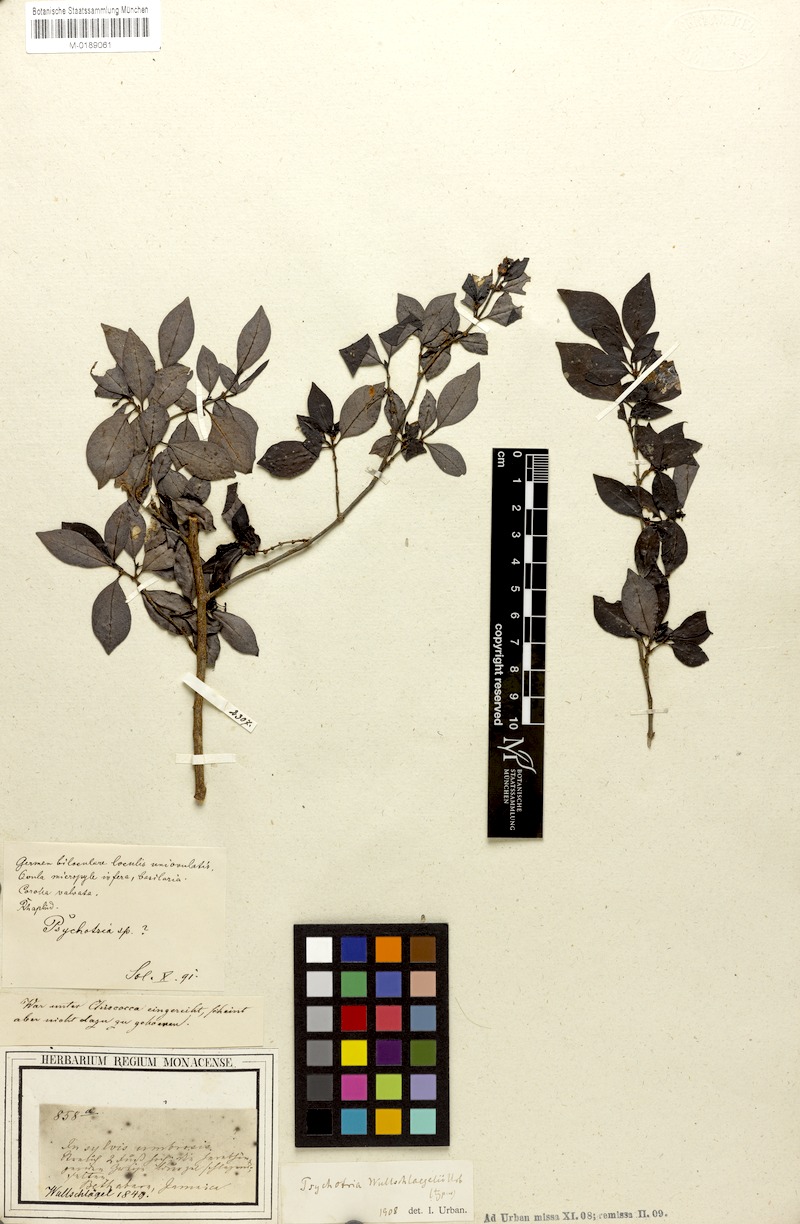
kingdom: Plantae
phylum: Tracheophyta
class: Magnoliopsida
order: Gentianales
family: Rubiaceae
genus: Psychotria
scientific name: Psychotria wullschlaegelii
